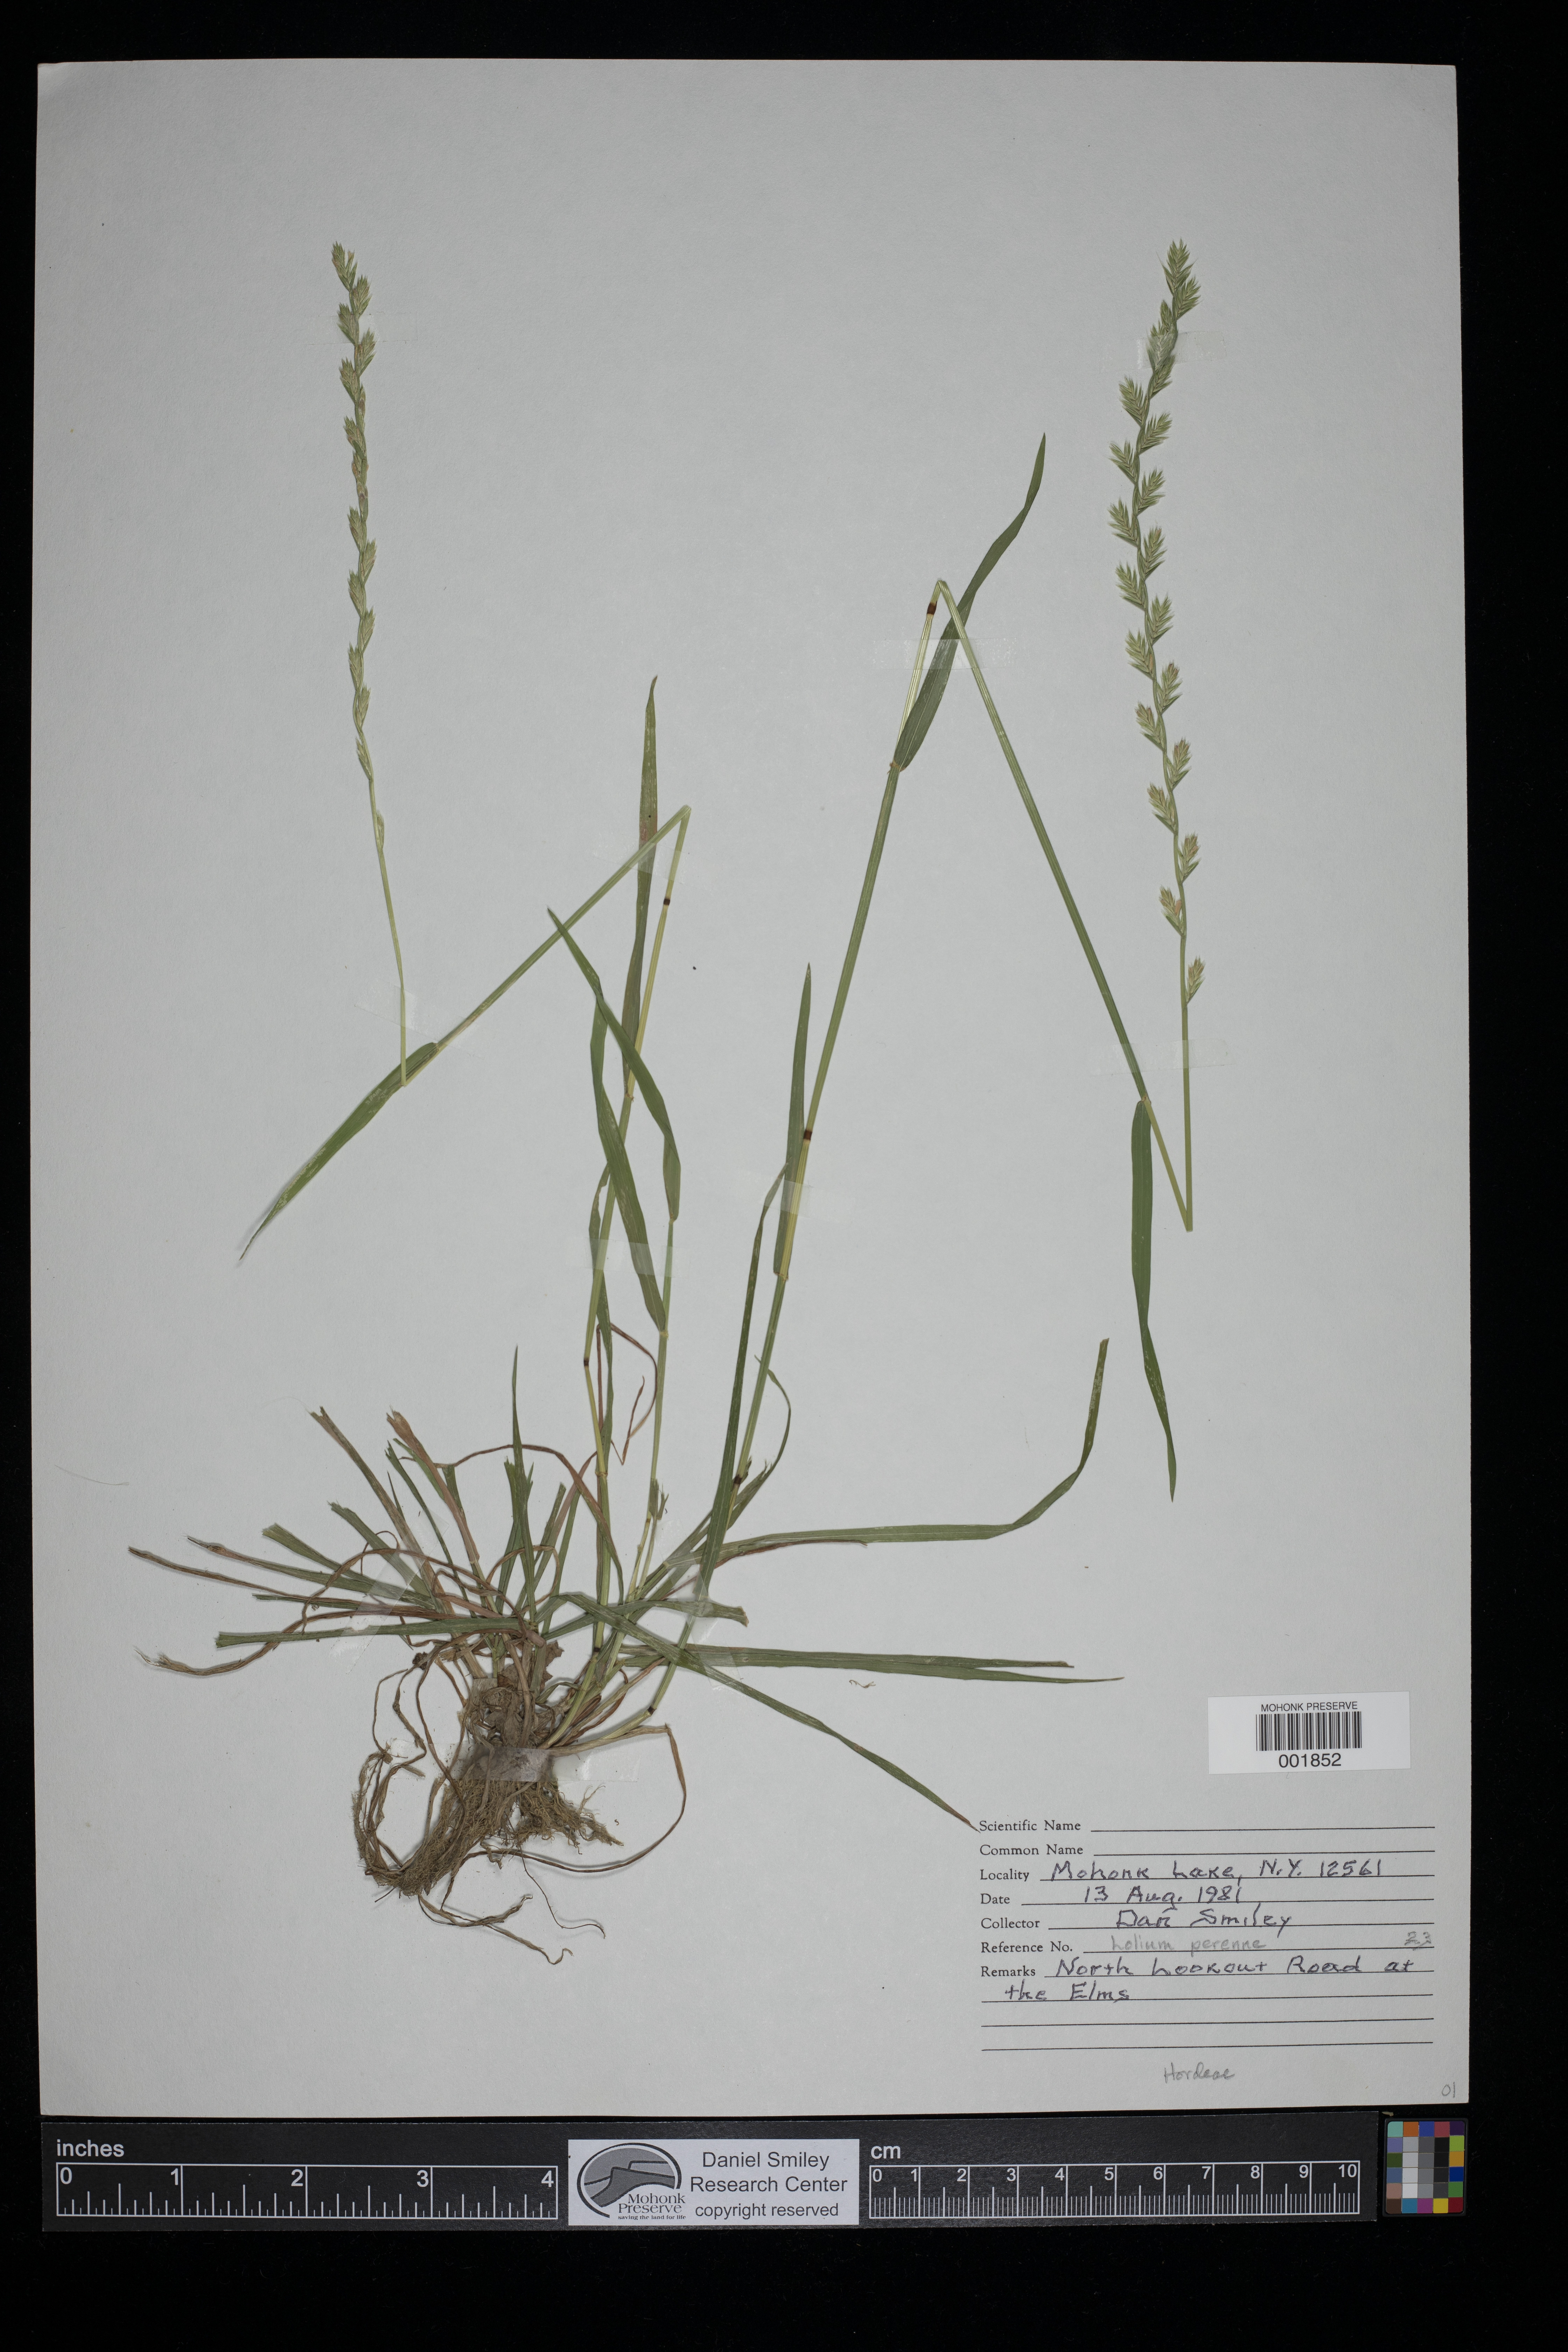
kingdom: Plantae
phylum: Tracheophyta
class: Liliopsida
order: Poales
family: Poaceae
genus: Lolium
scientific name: Lolium perenne
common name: Perennial ryegrass
